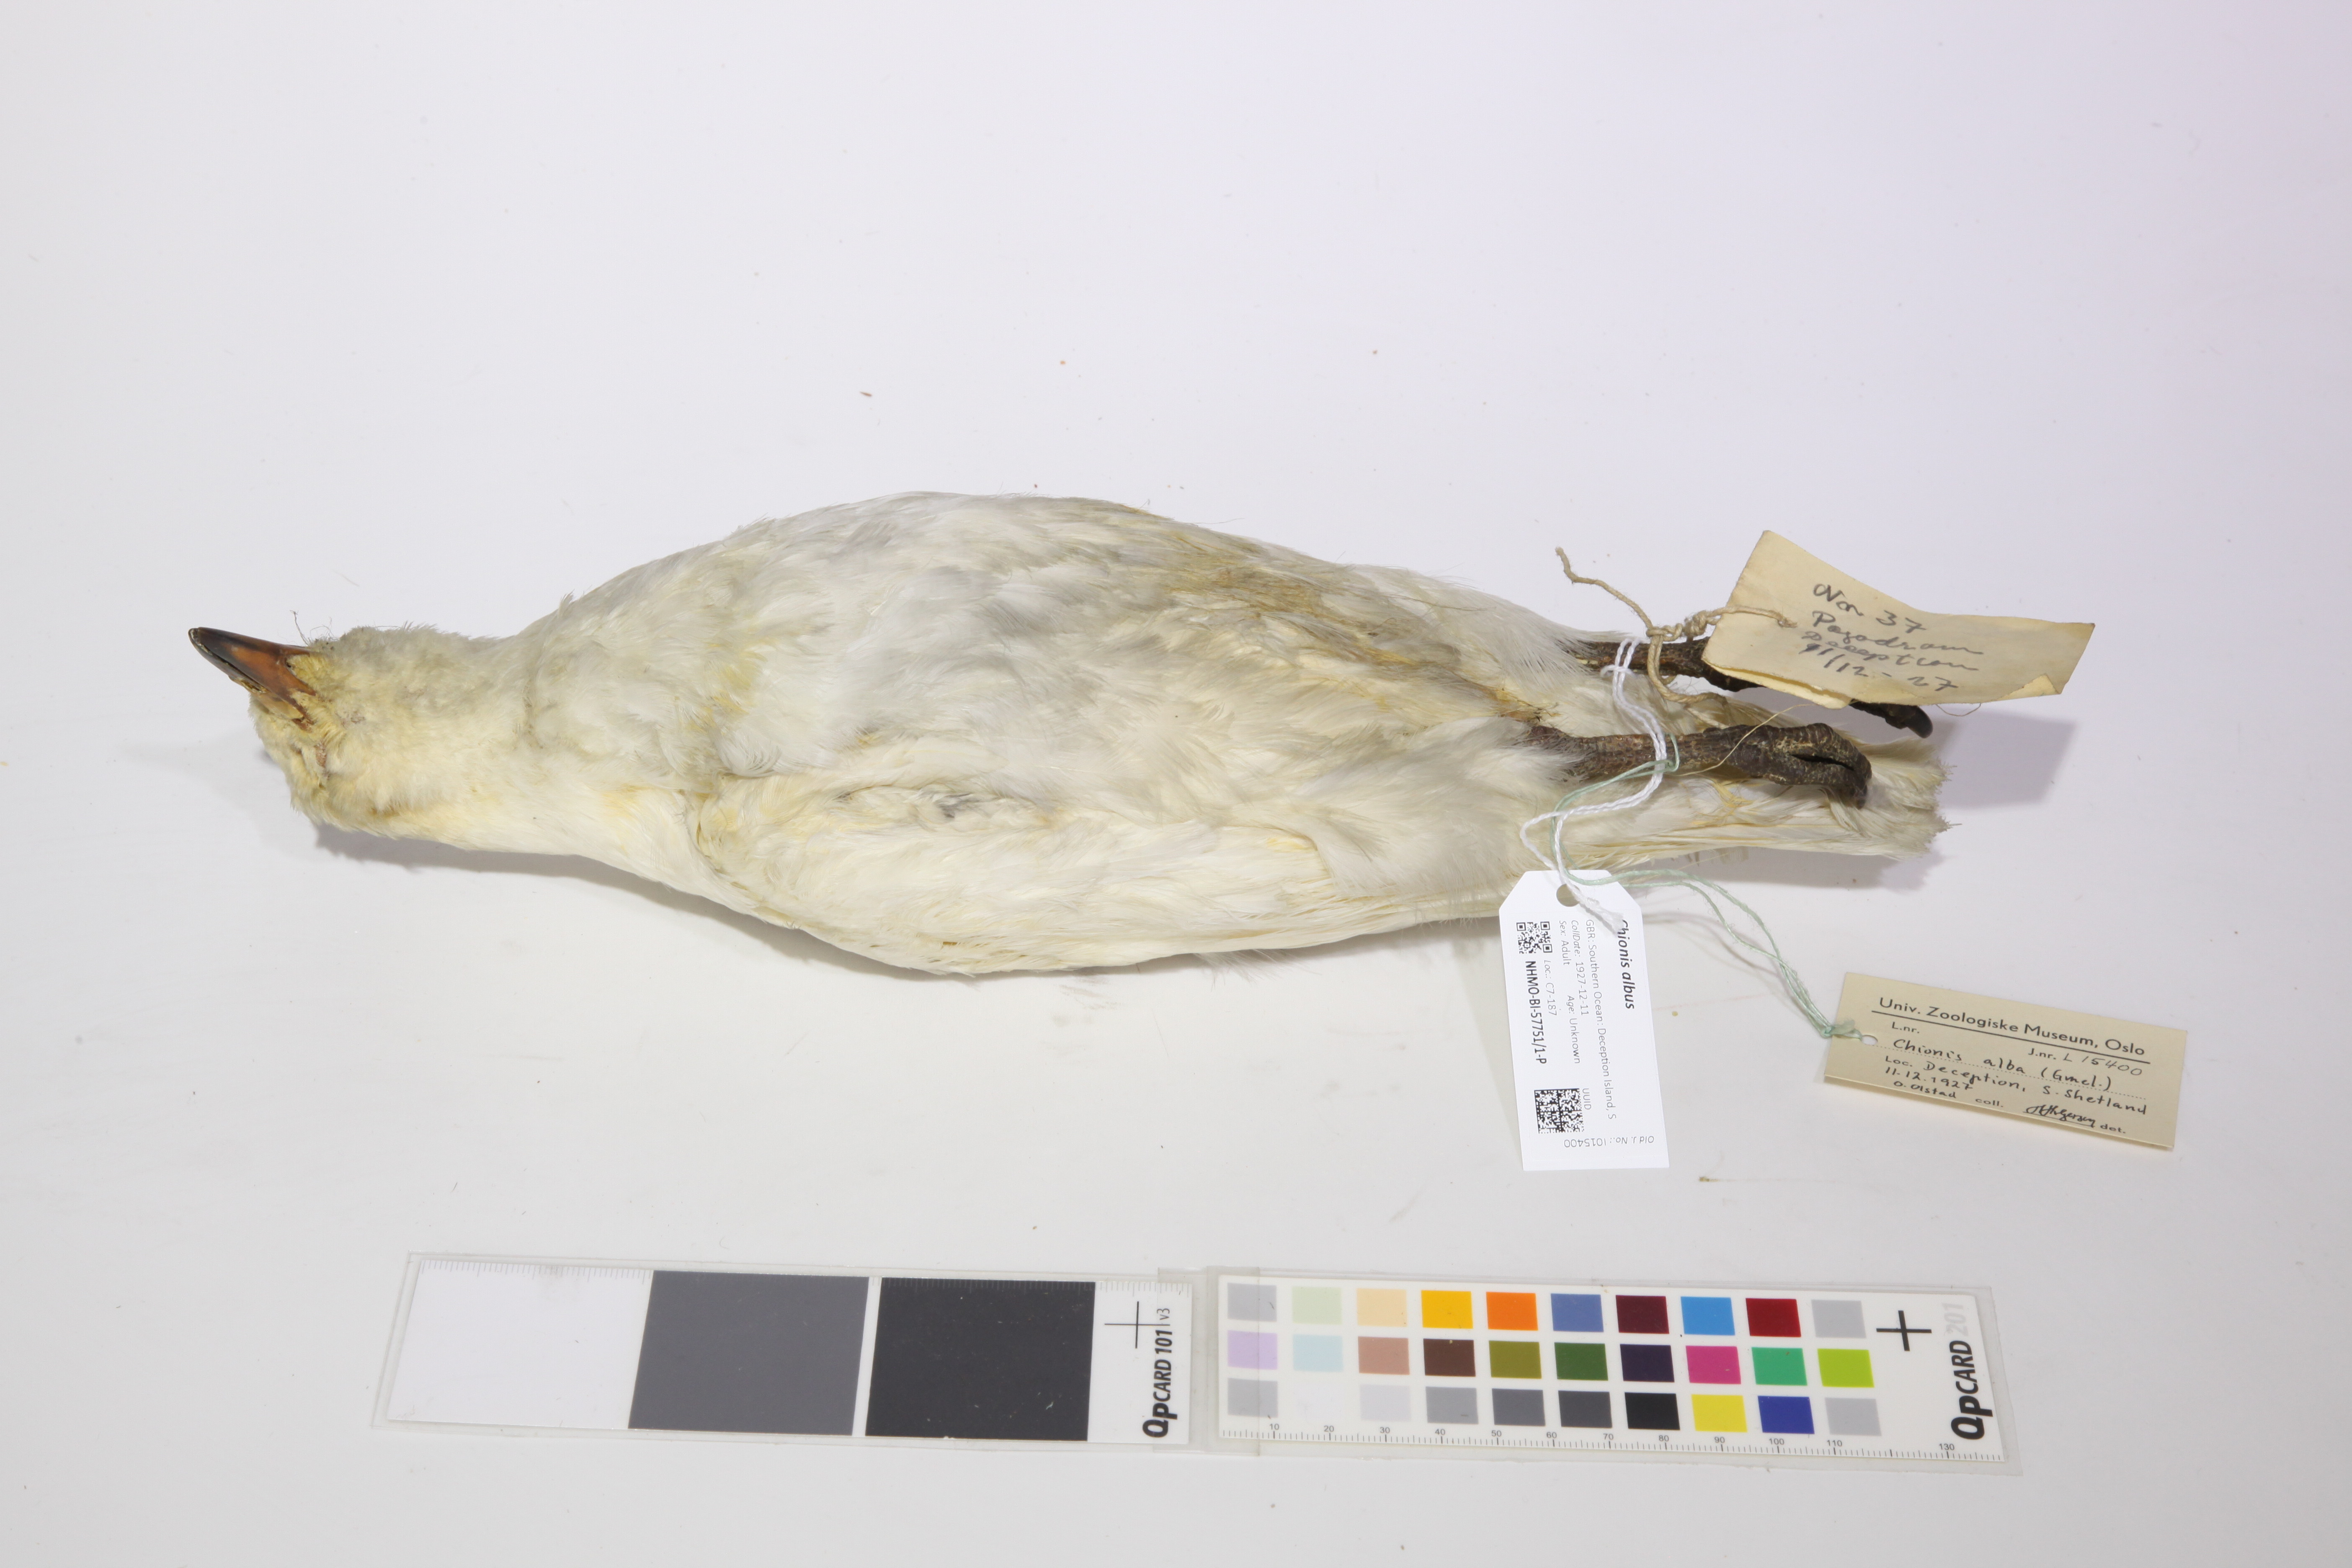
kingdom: Animalia
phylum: Chordata
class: Aves
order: Charadriiformes
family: Chionidae
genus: Chionis
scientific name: Chionis albus
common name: Snowy sheathbill
